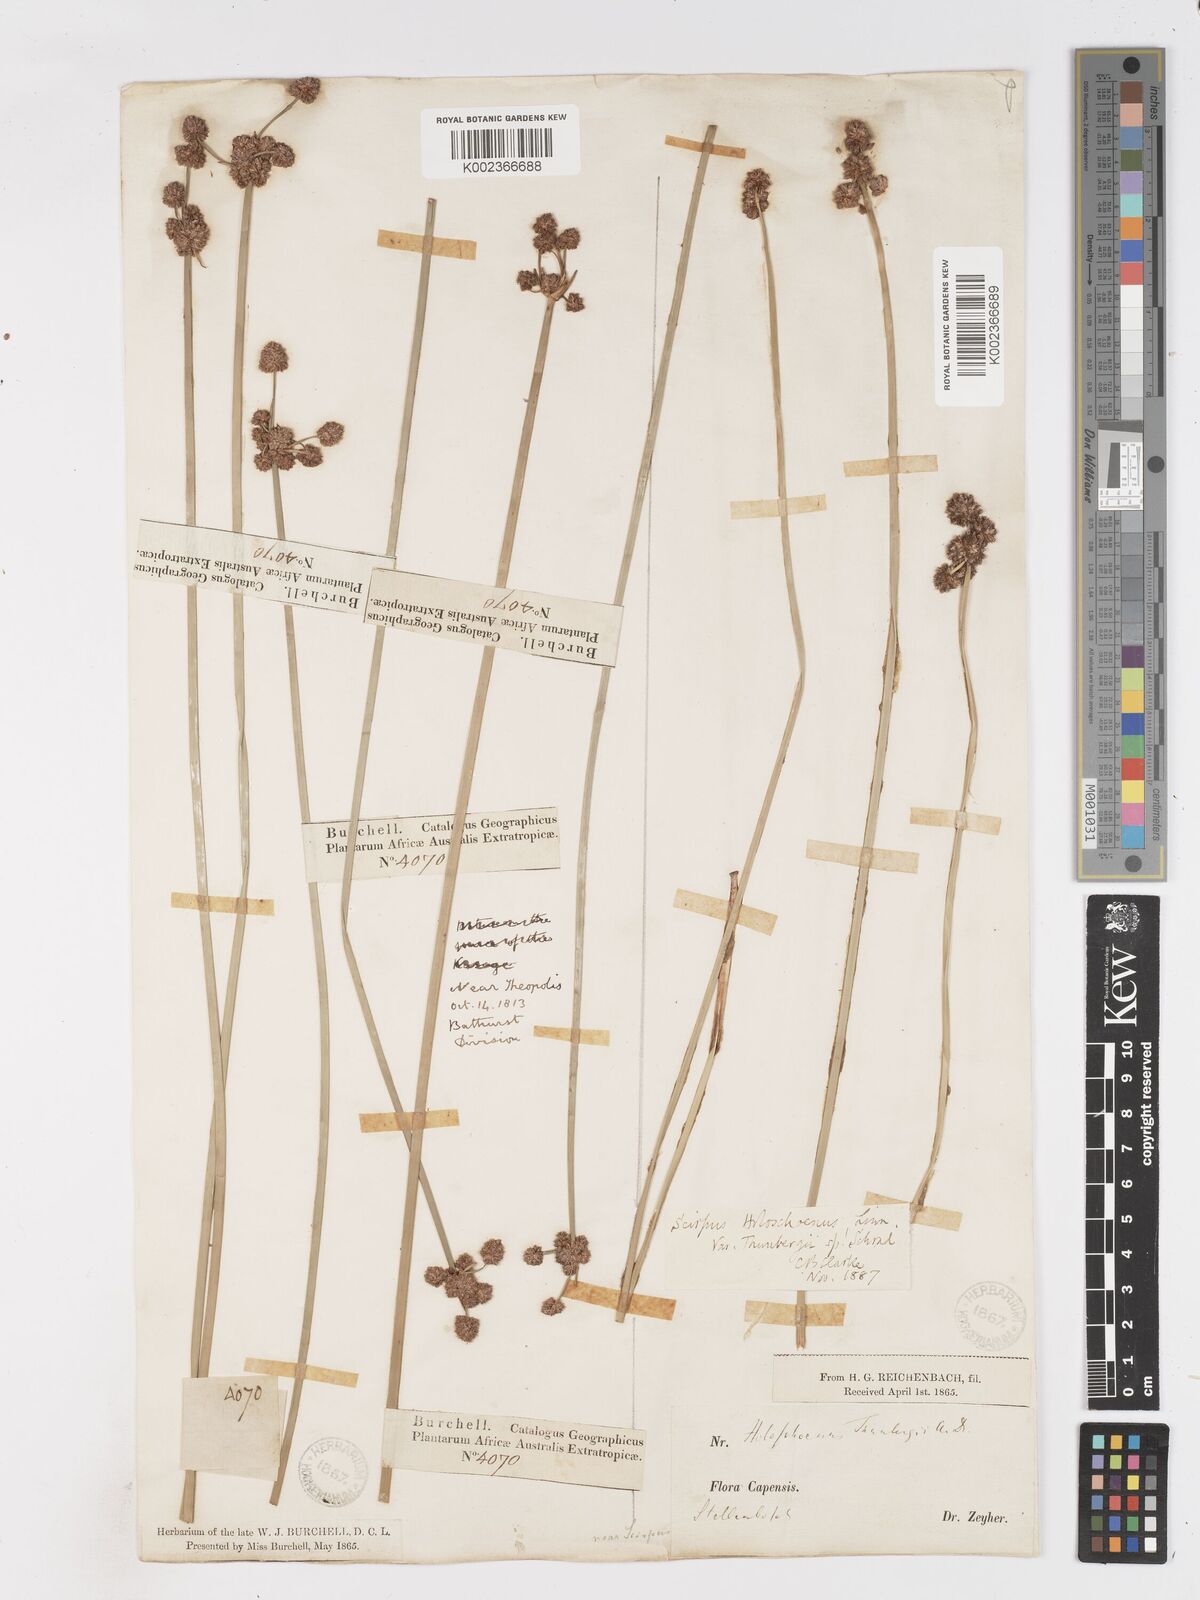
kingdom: Plantae
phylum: Tracheophyta
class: Liliopsida
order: Poales
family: Cyperaceae
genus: Scirpoides
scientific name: Scirpoides holoschoenus
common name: Round-headed club-rush
